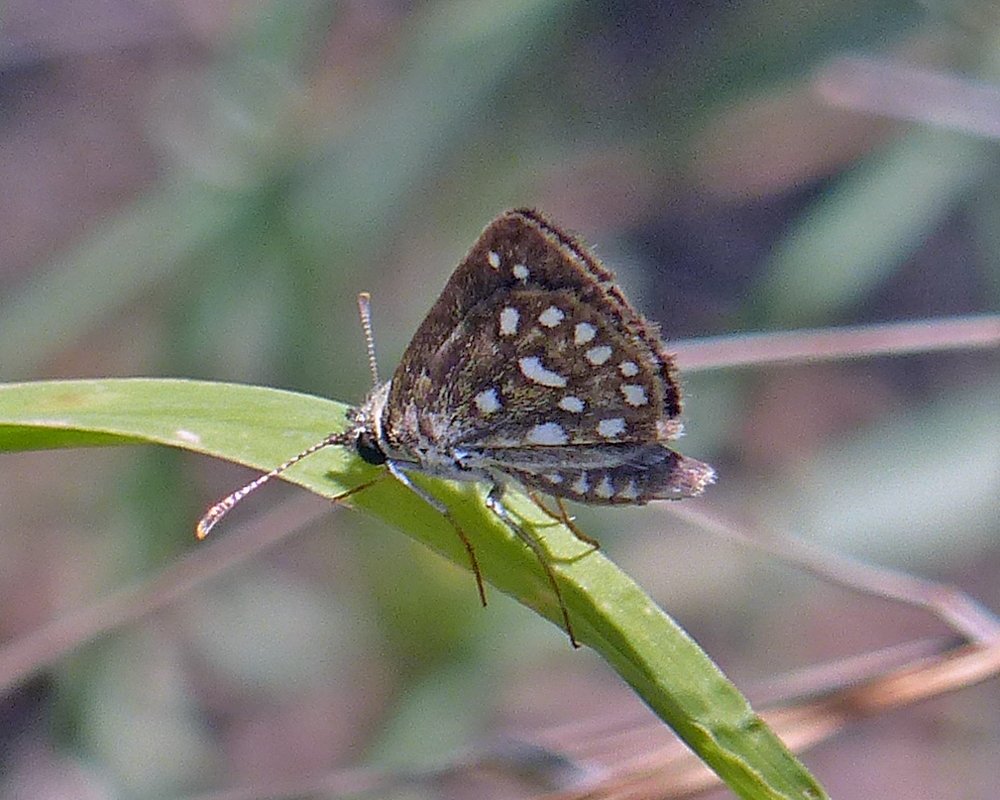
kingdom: Animalia
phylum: Arthropoda
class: Insecta
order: Lepidoptera
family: Hesperiidae
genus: Piruna
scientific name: Piruna aea
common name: Many-spotted Skipperling
